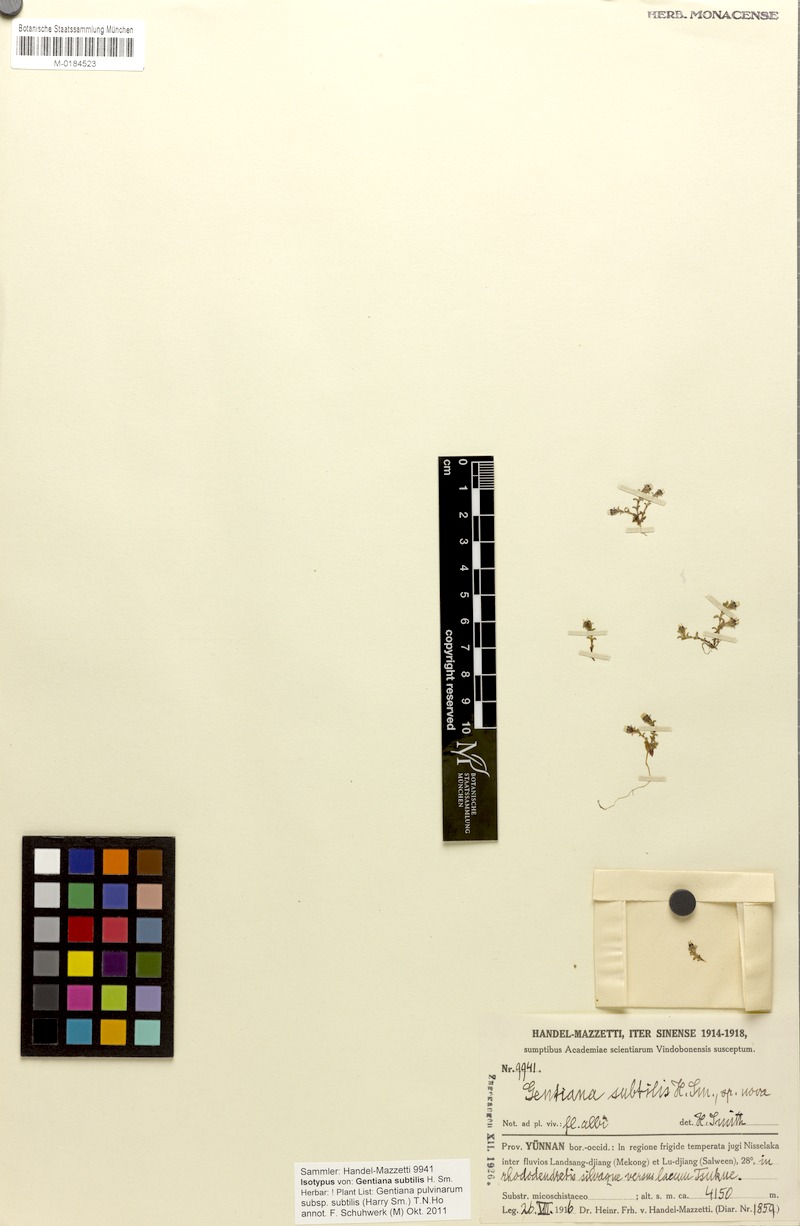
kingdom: Plantae
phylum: Tracheophyta
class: Magnoliopsida
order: Gentianales
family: Gentianaceae
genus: Gentiana
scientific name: Gentiana pulvinarum
